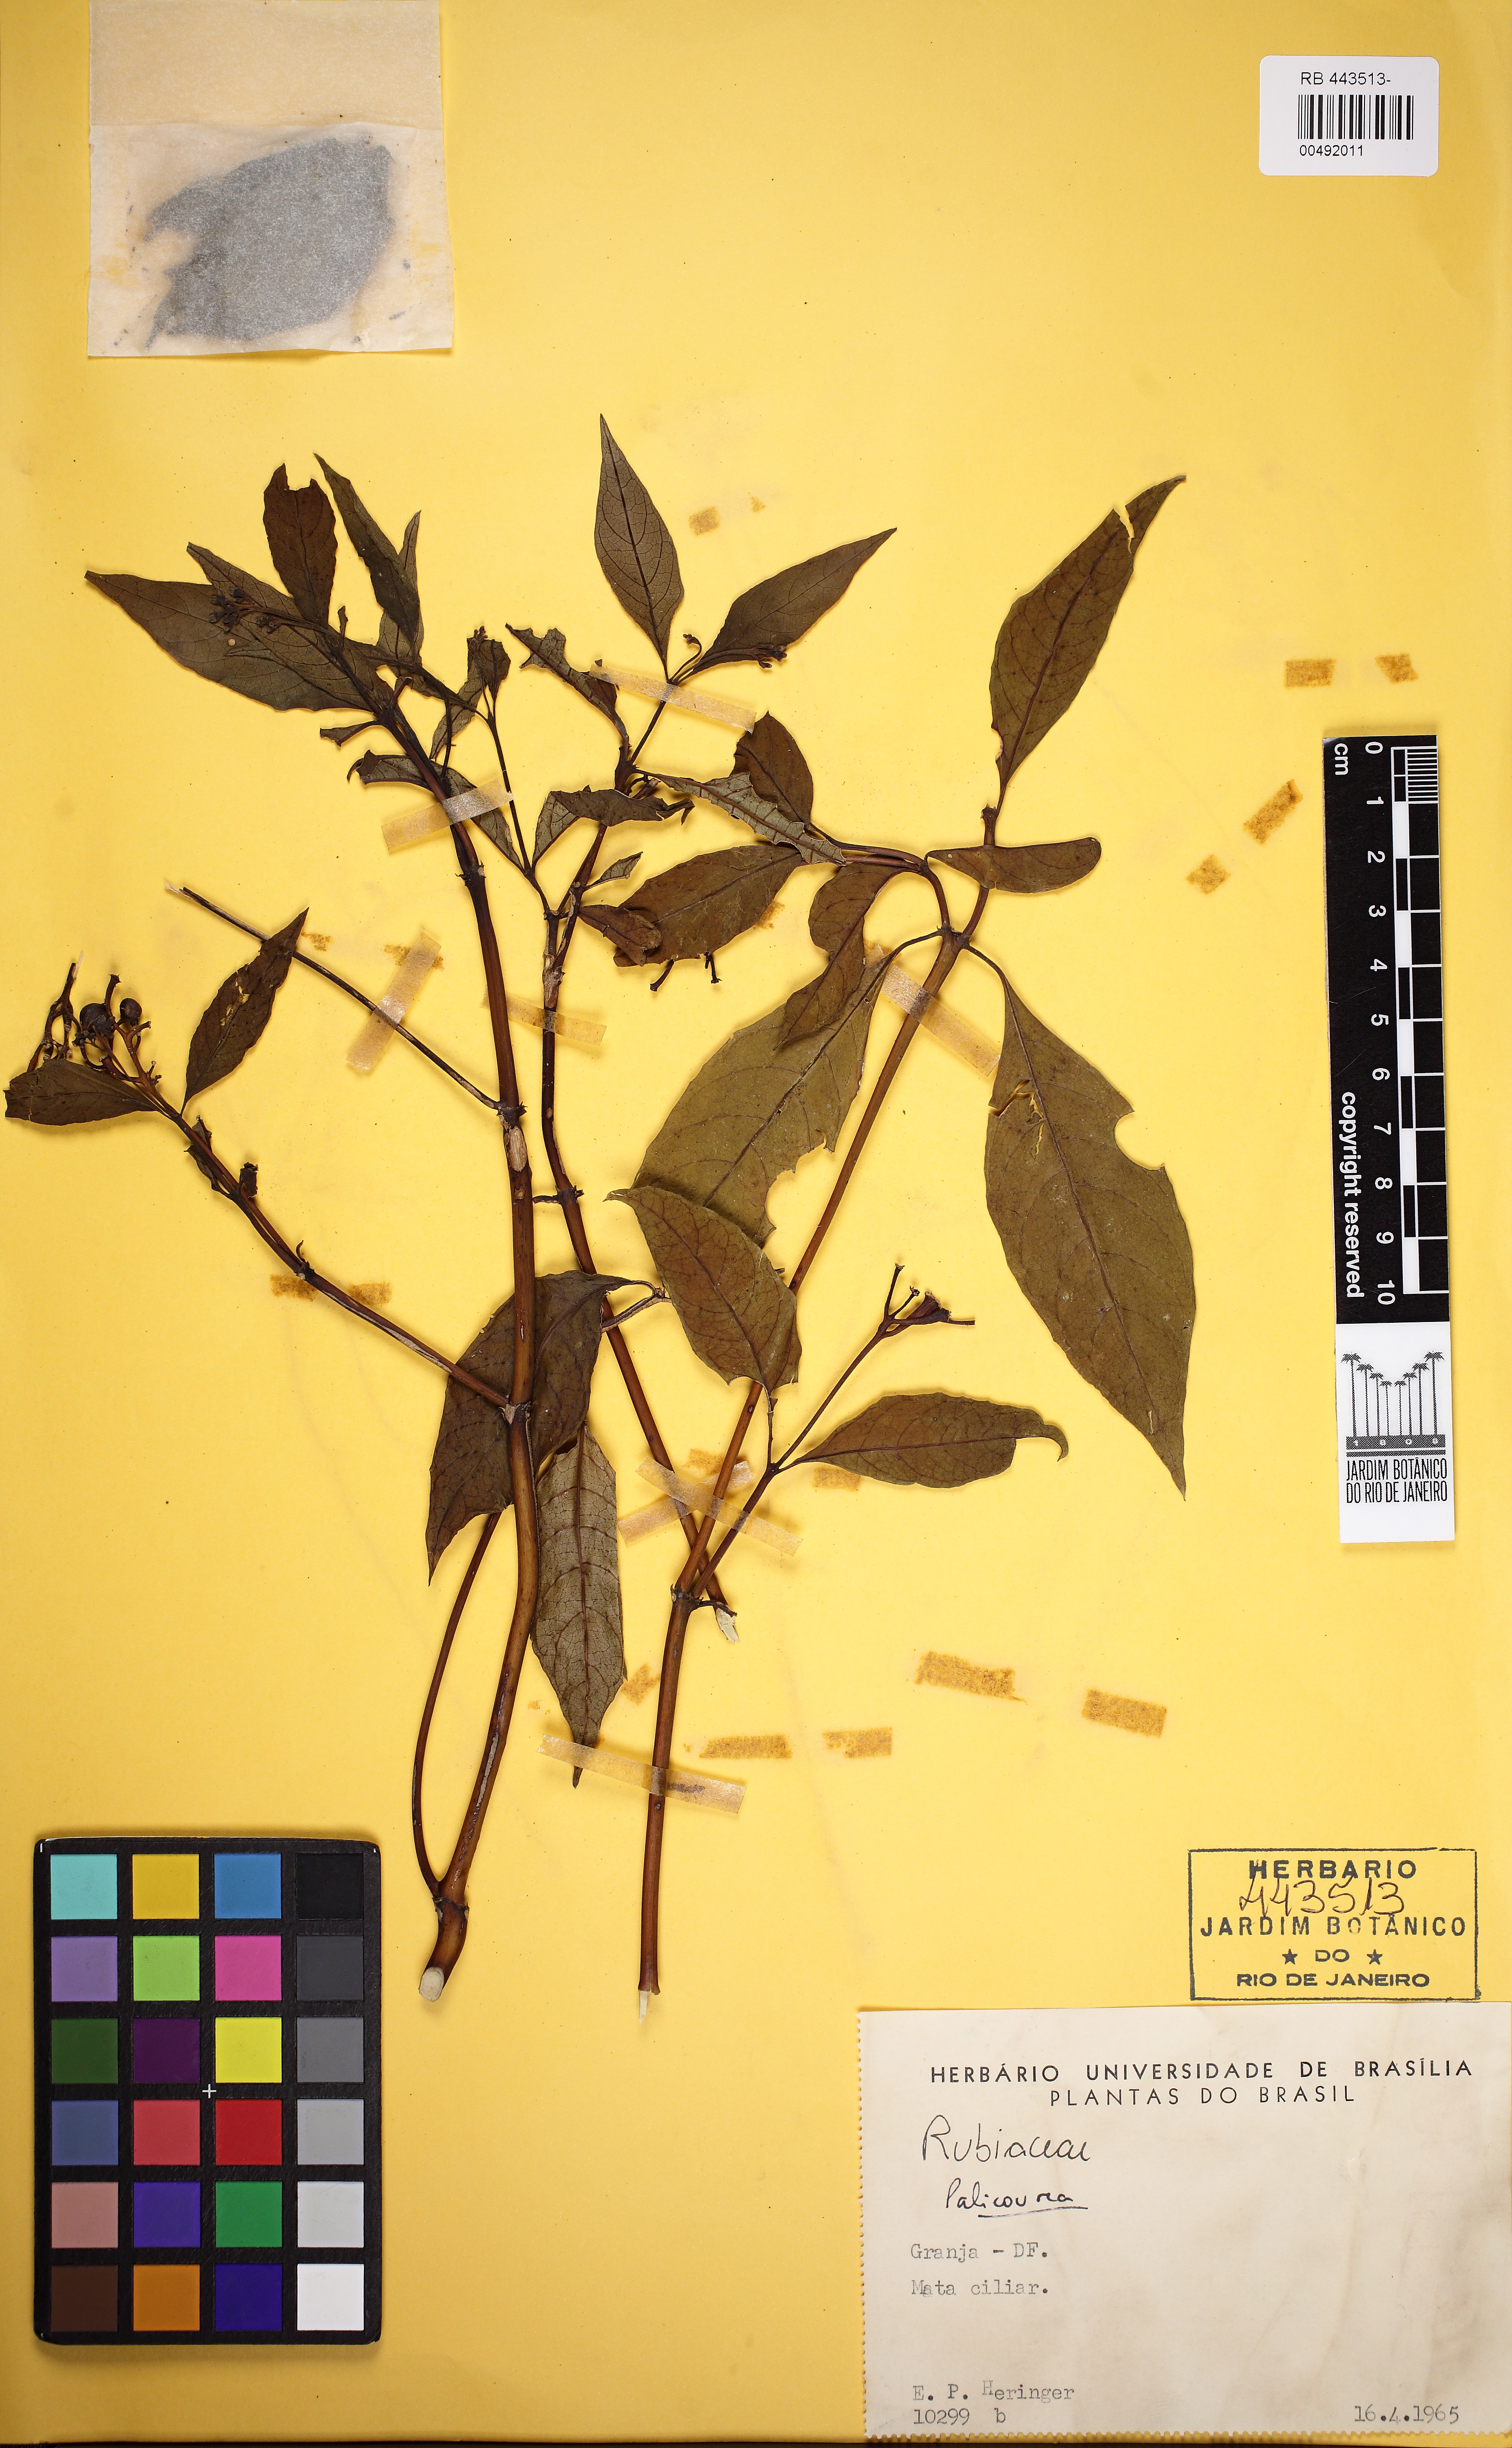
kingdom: Plantae
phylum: Tracheophyta
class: Magnoliopsida
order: Gentianales
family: Rubiaceae
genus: Palicourea
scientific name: Palicourea
